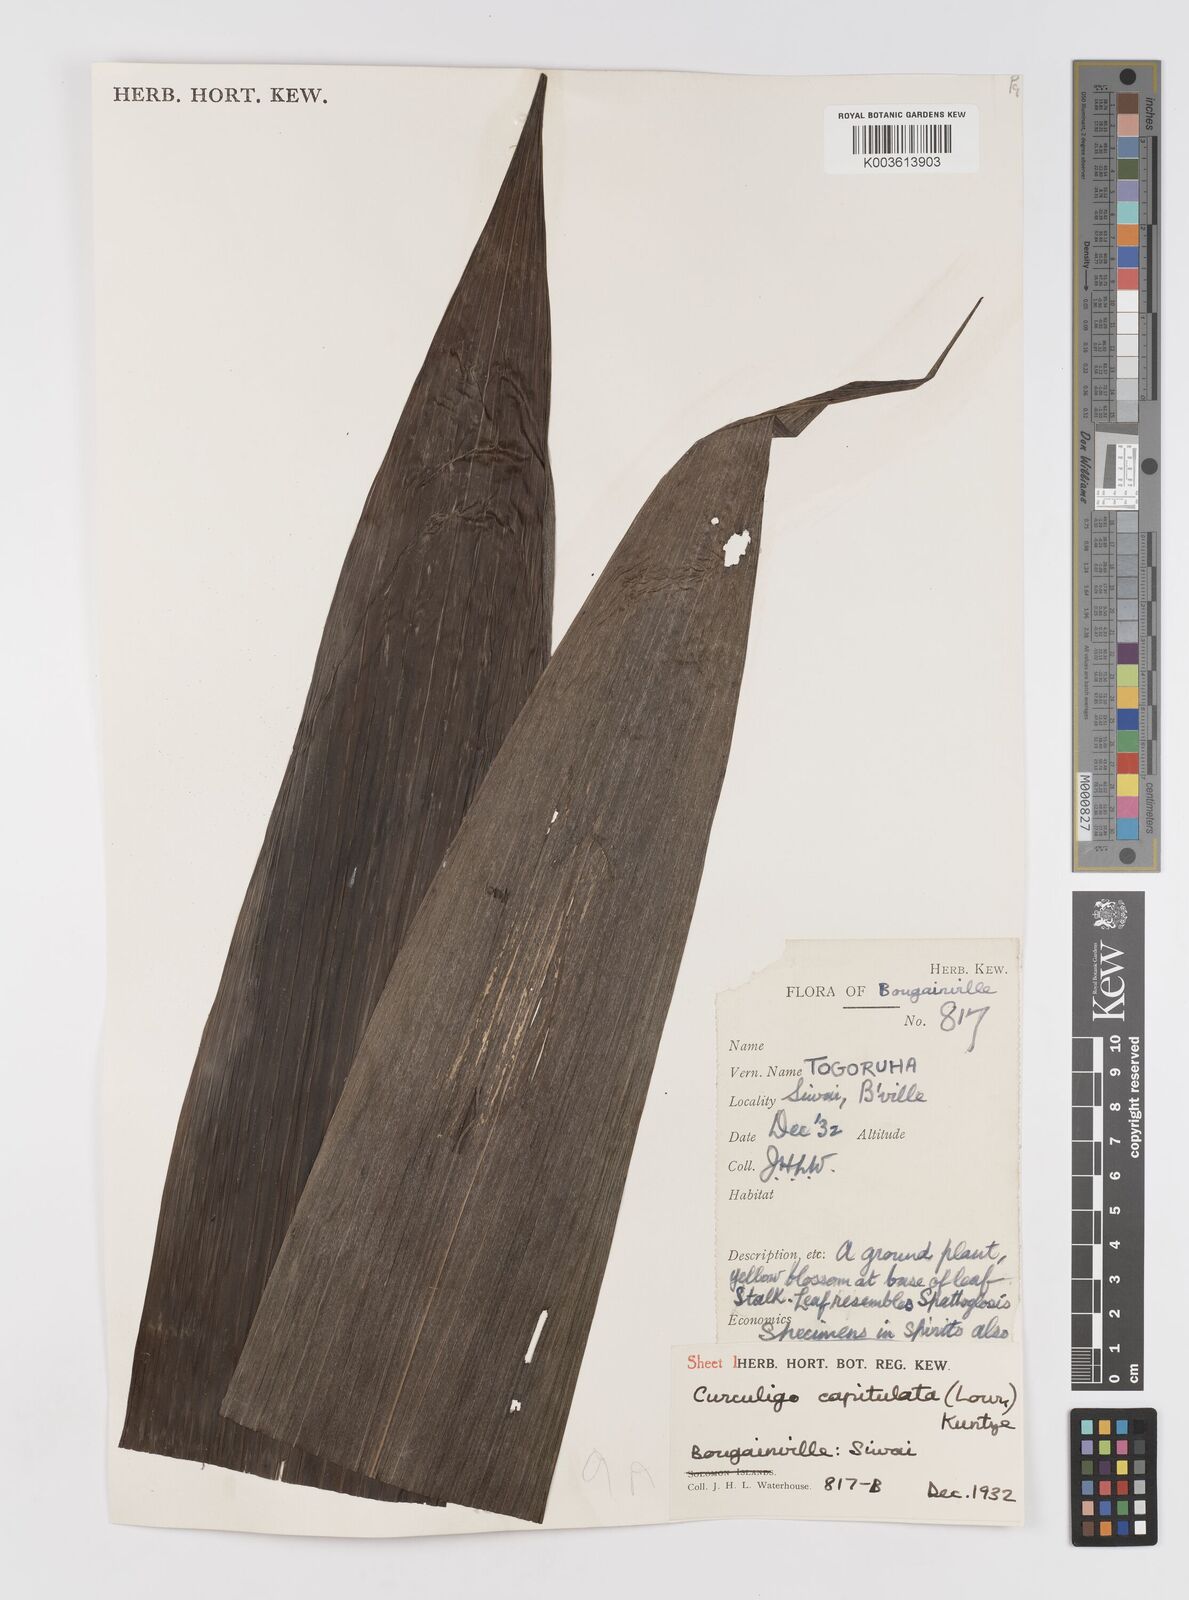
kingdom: Plantae
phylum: Tracheophyta
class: Liliopsida
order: Asparagales
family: Hypoxidaceae
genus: Curculigo
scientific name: Curculigo capitulata
